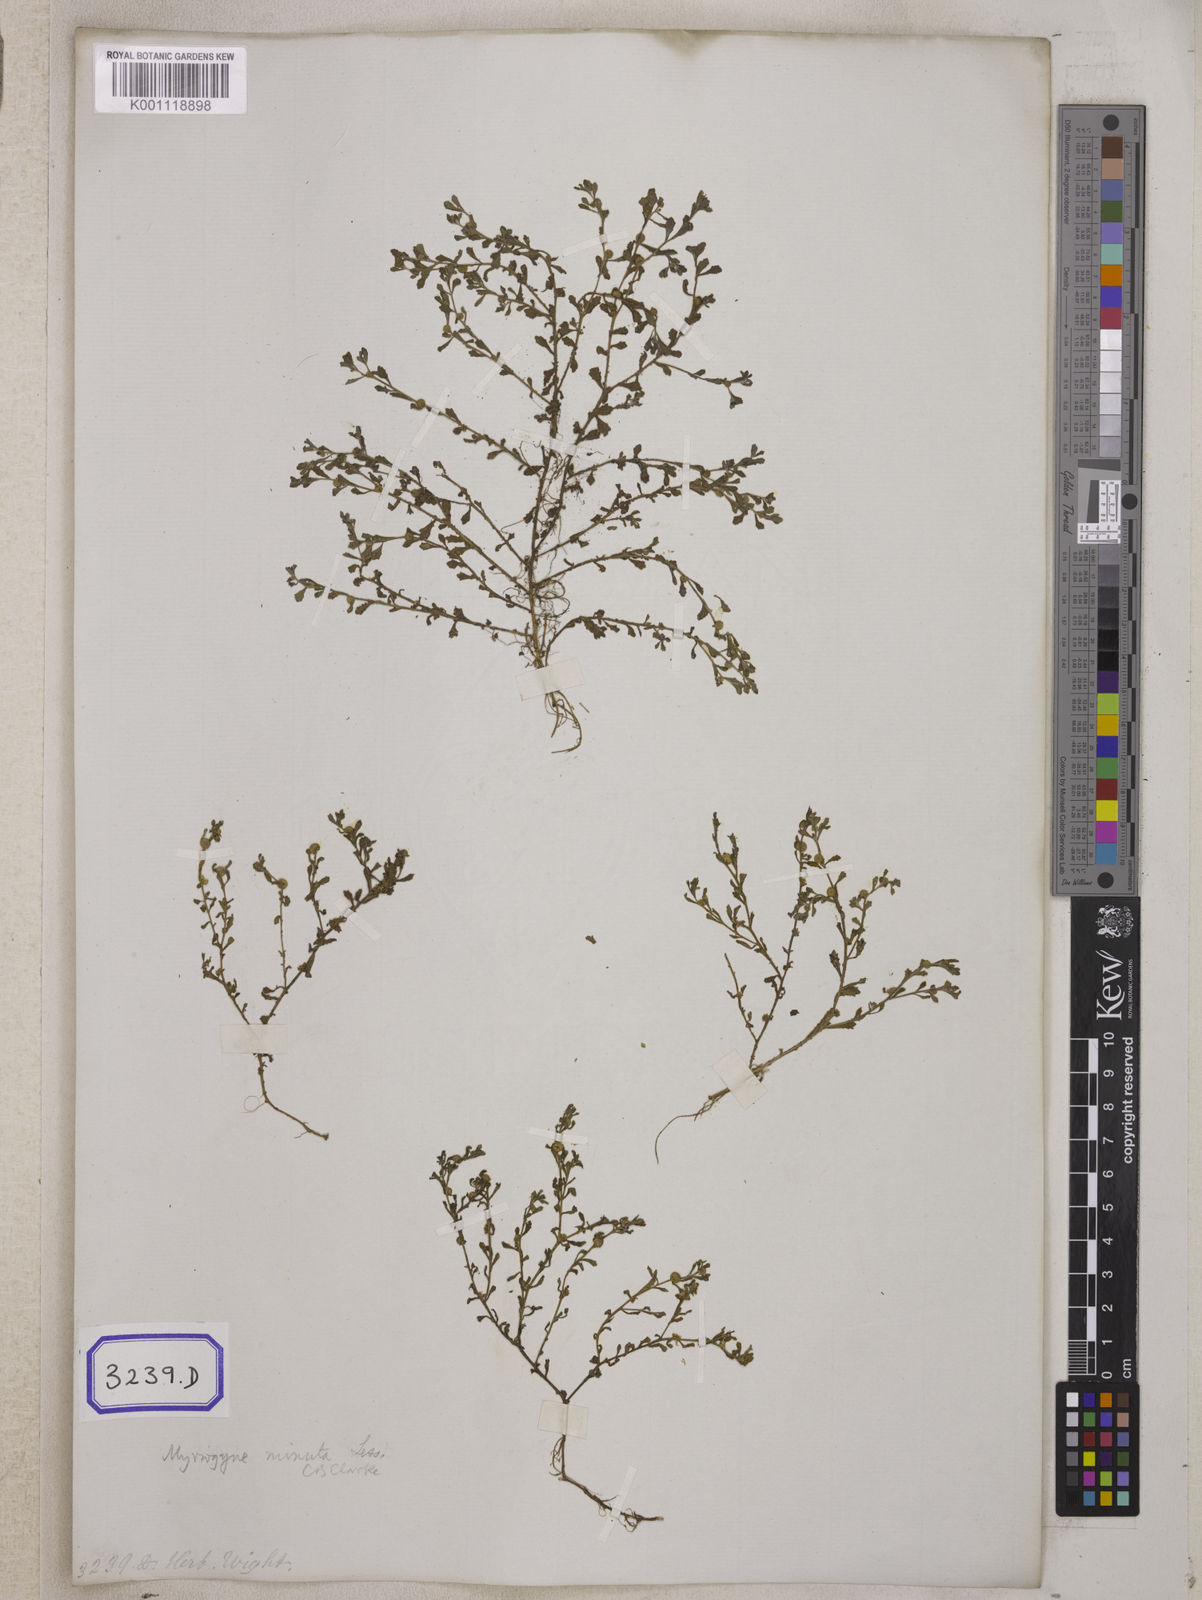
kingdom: Plantae
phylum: Tracheophyta
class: Magnoliopsida
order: Asterales
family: Asteraceae
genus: Cotula
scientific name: Cotula
